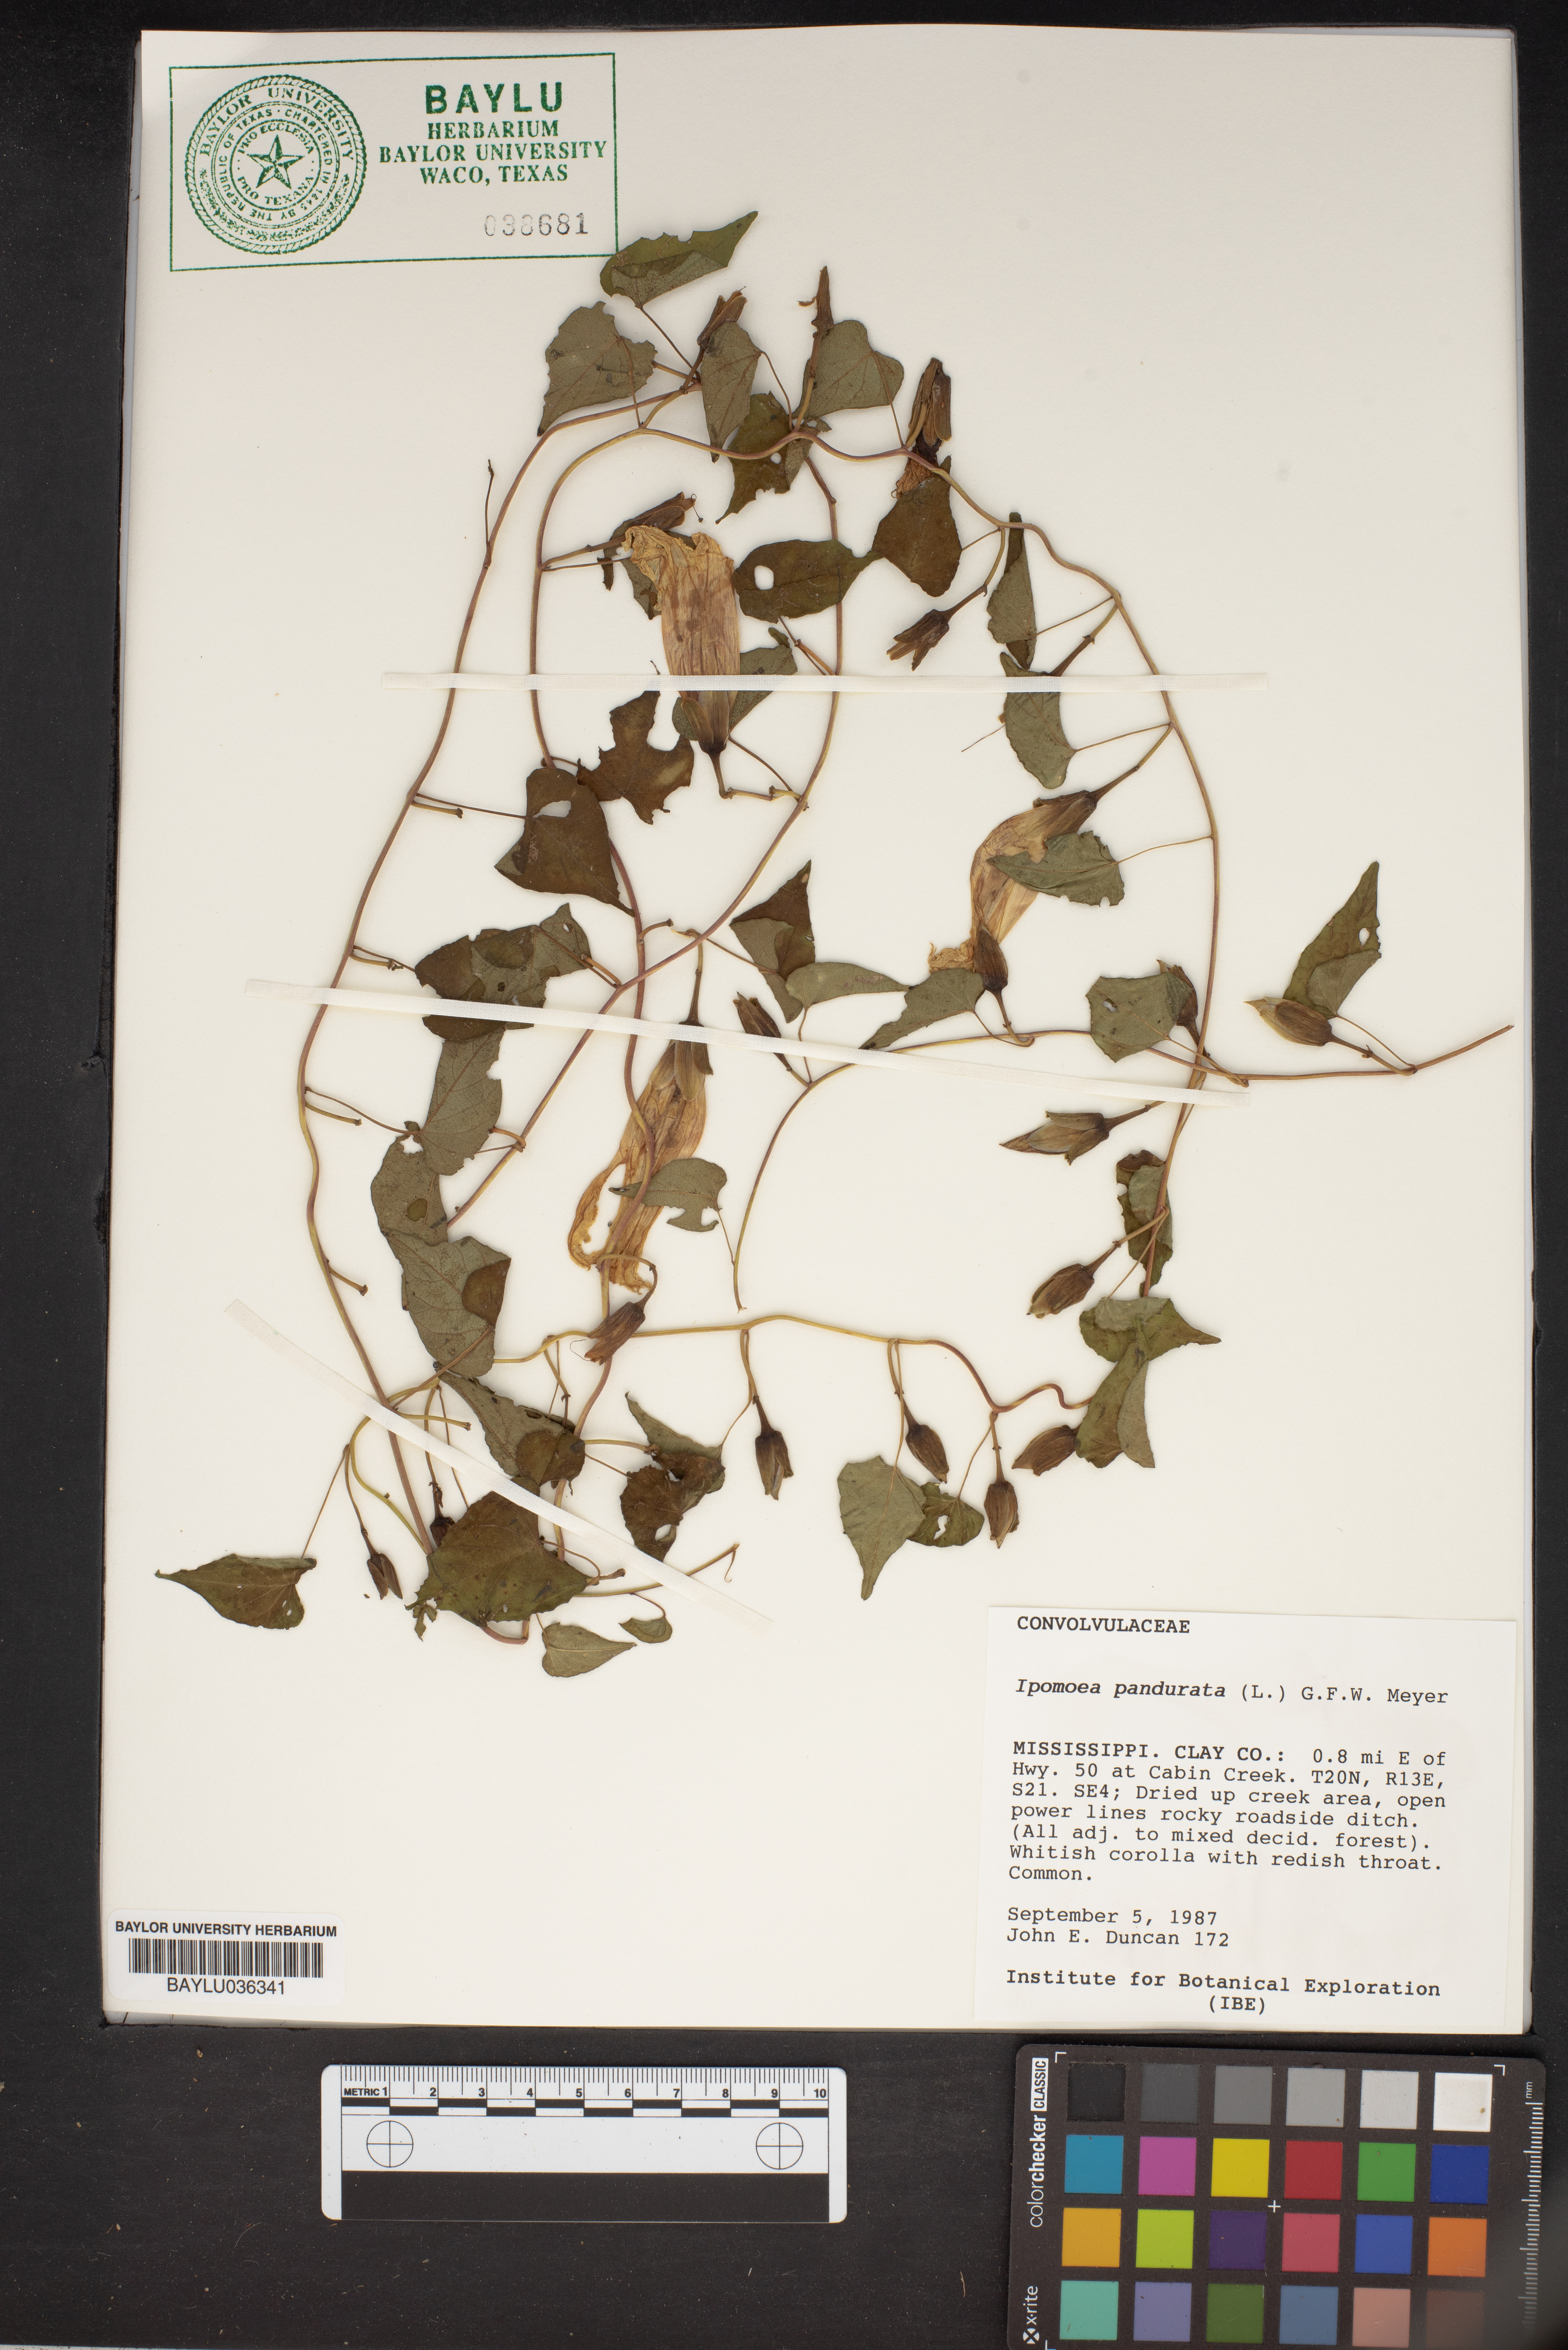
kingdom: Plantae
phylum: Tracheophyta
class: Magnoliopsida
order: Solanales
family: Convolvulaceae
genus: Ipomoea
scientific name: Ipomoea pandurata
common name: Man-of-the-earth
